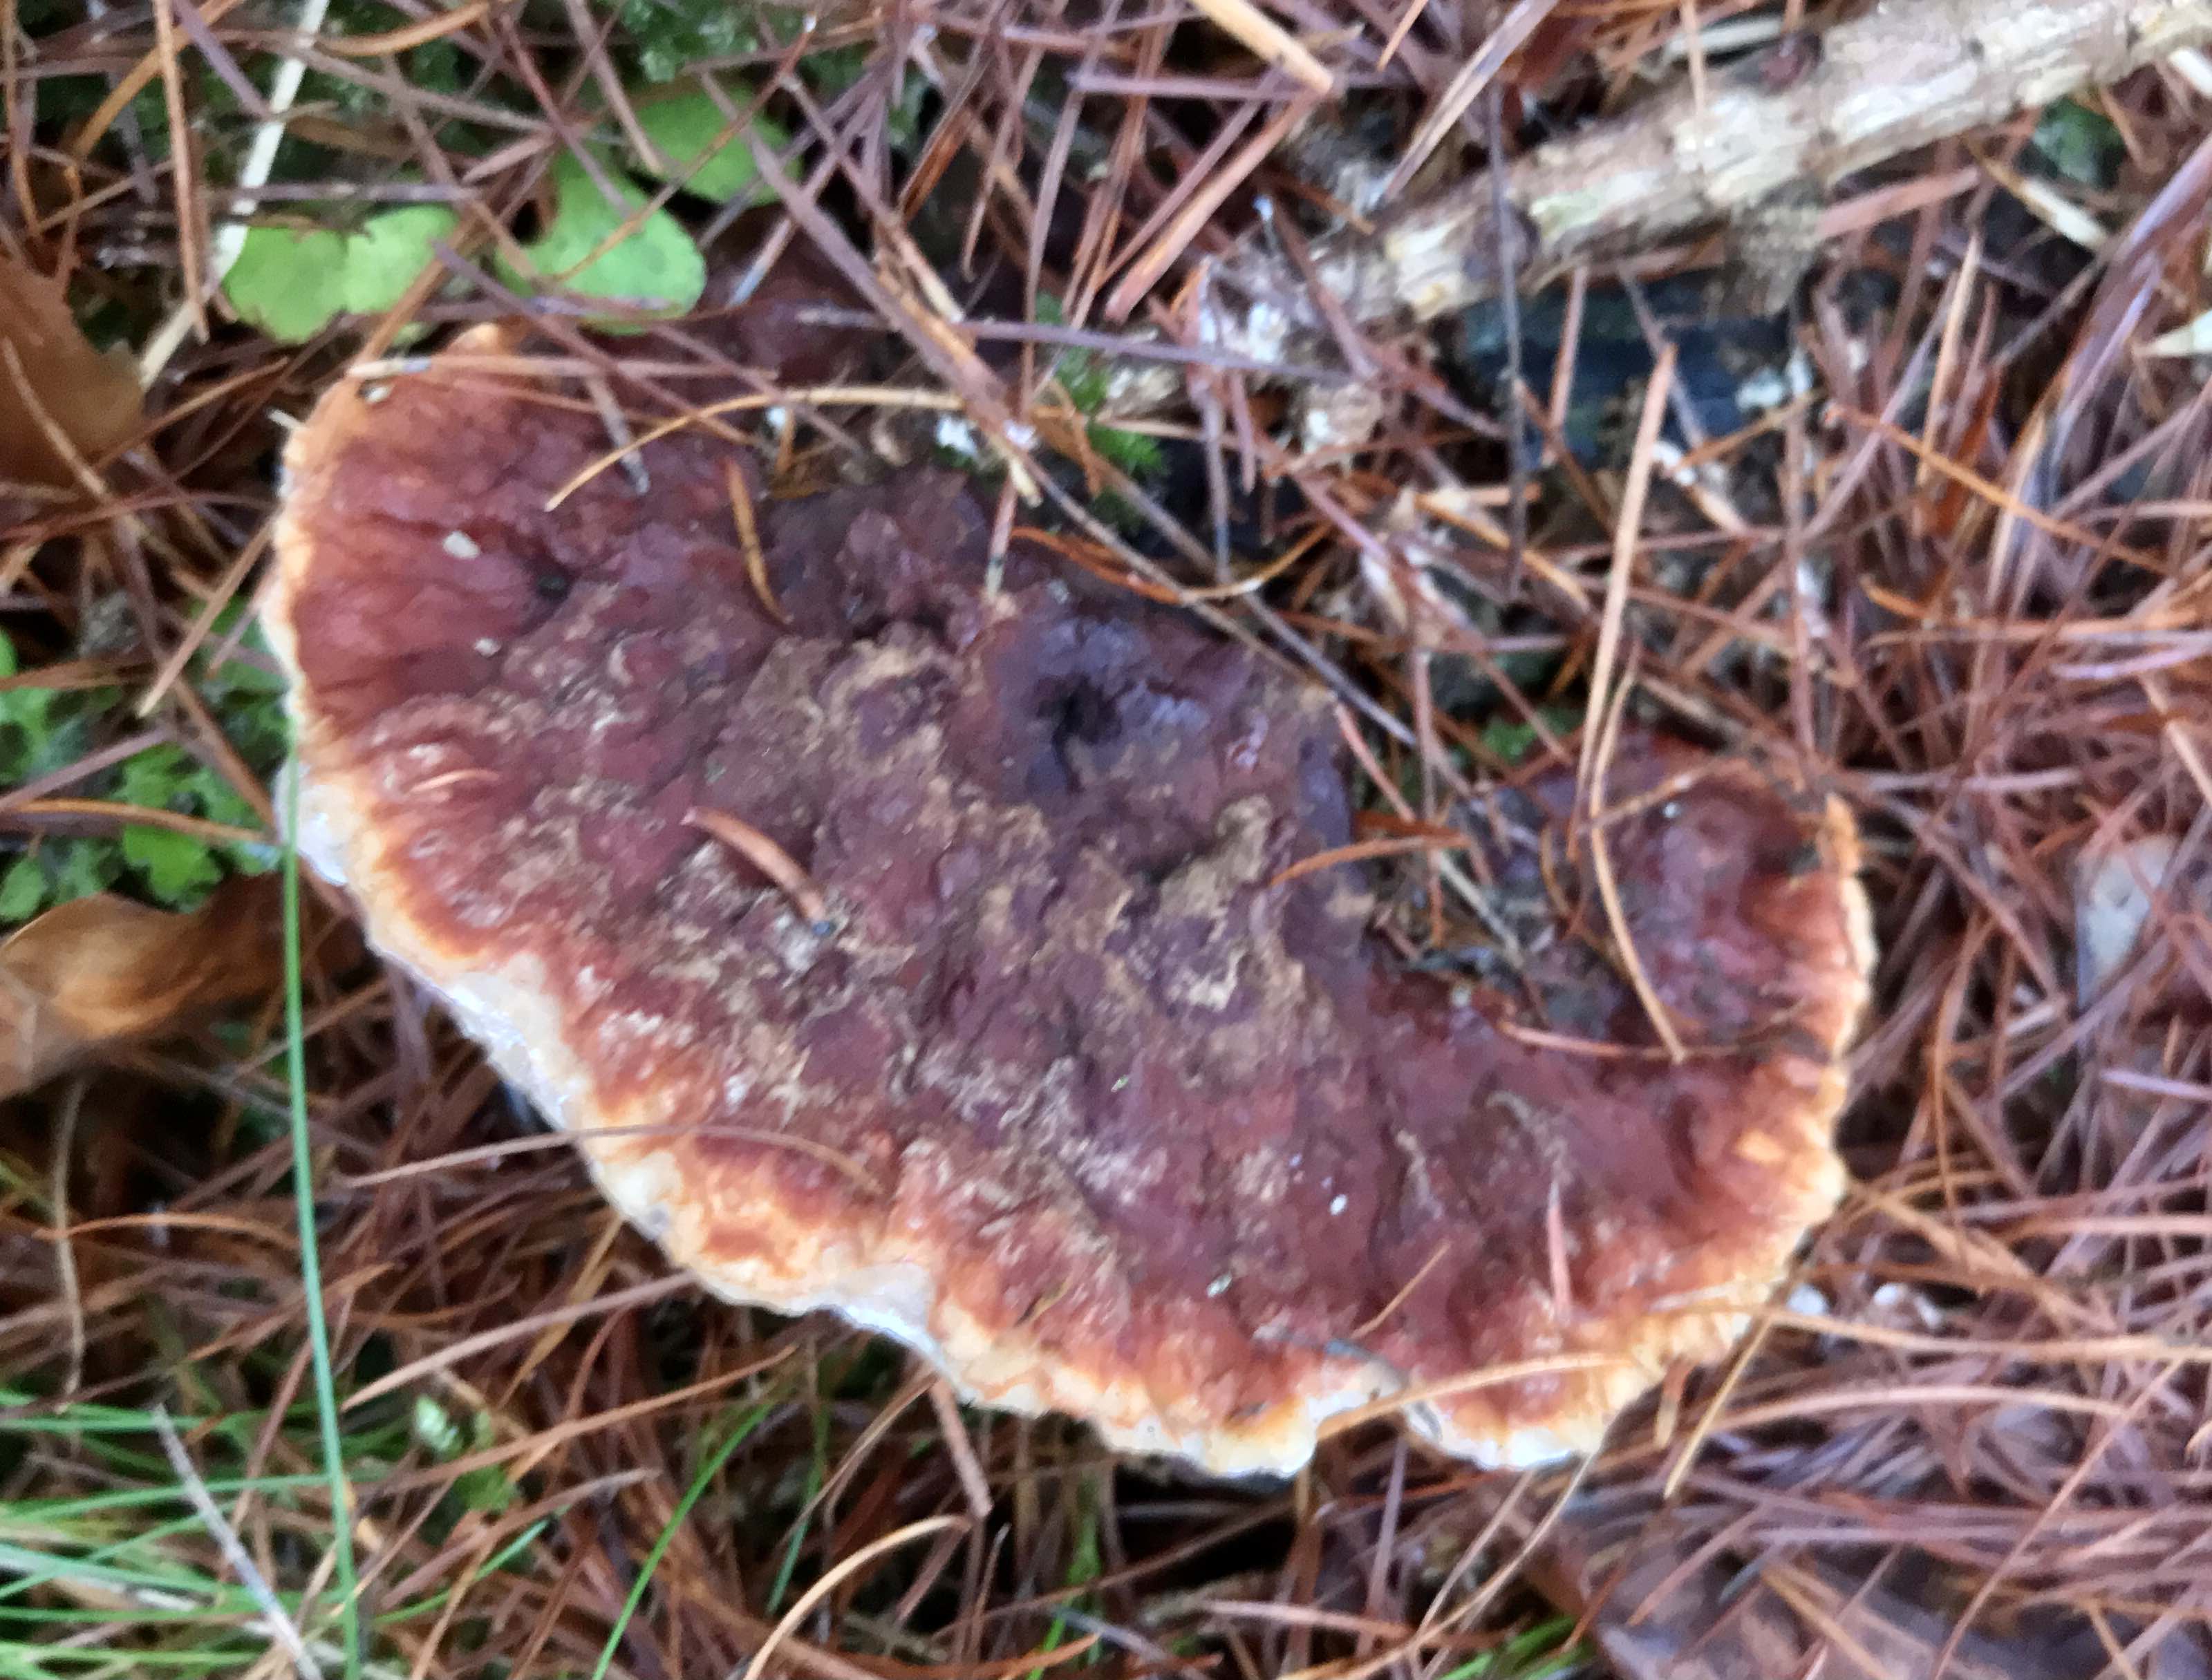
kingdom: Fungi
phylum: Basidiomycota
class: Agaricomycetes
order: Russulales
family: Bondarzewiaceae
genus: Heterobasidion
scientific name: Heterobasidion annosum
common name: almindelig rodfordærver
